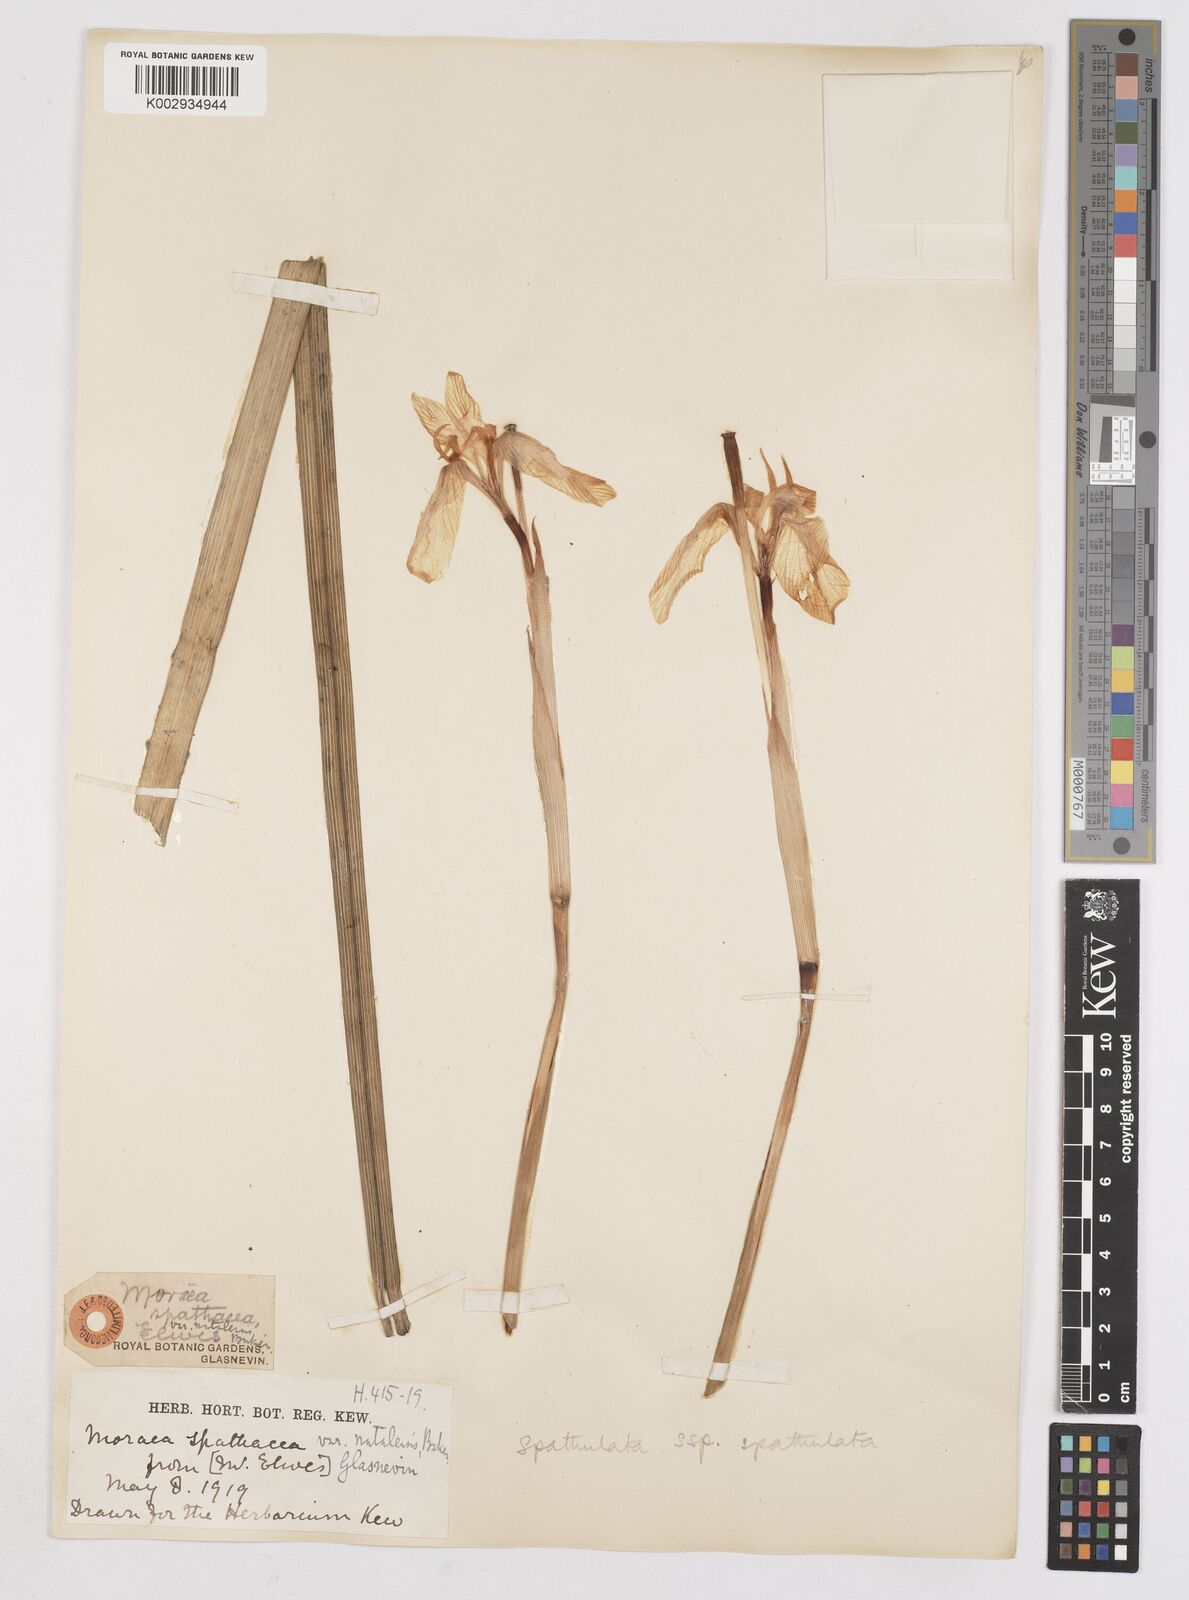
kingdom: Plantae
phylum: Tracheophyta
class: Liliopsida
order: Asparagales
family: Iridaceae
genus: Moraea
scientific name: Moraea spathulata
